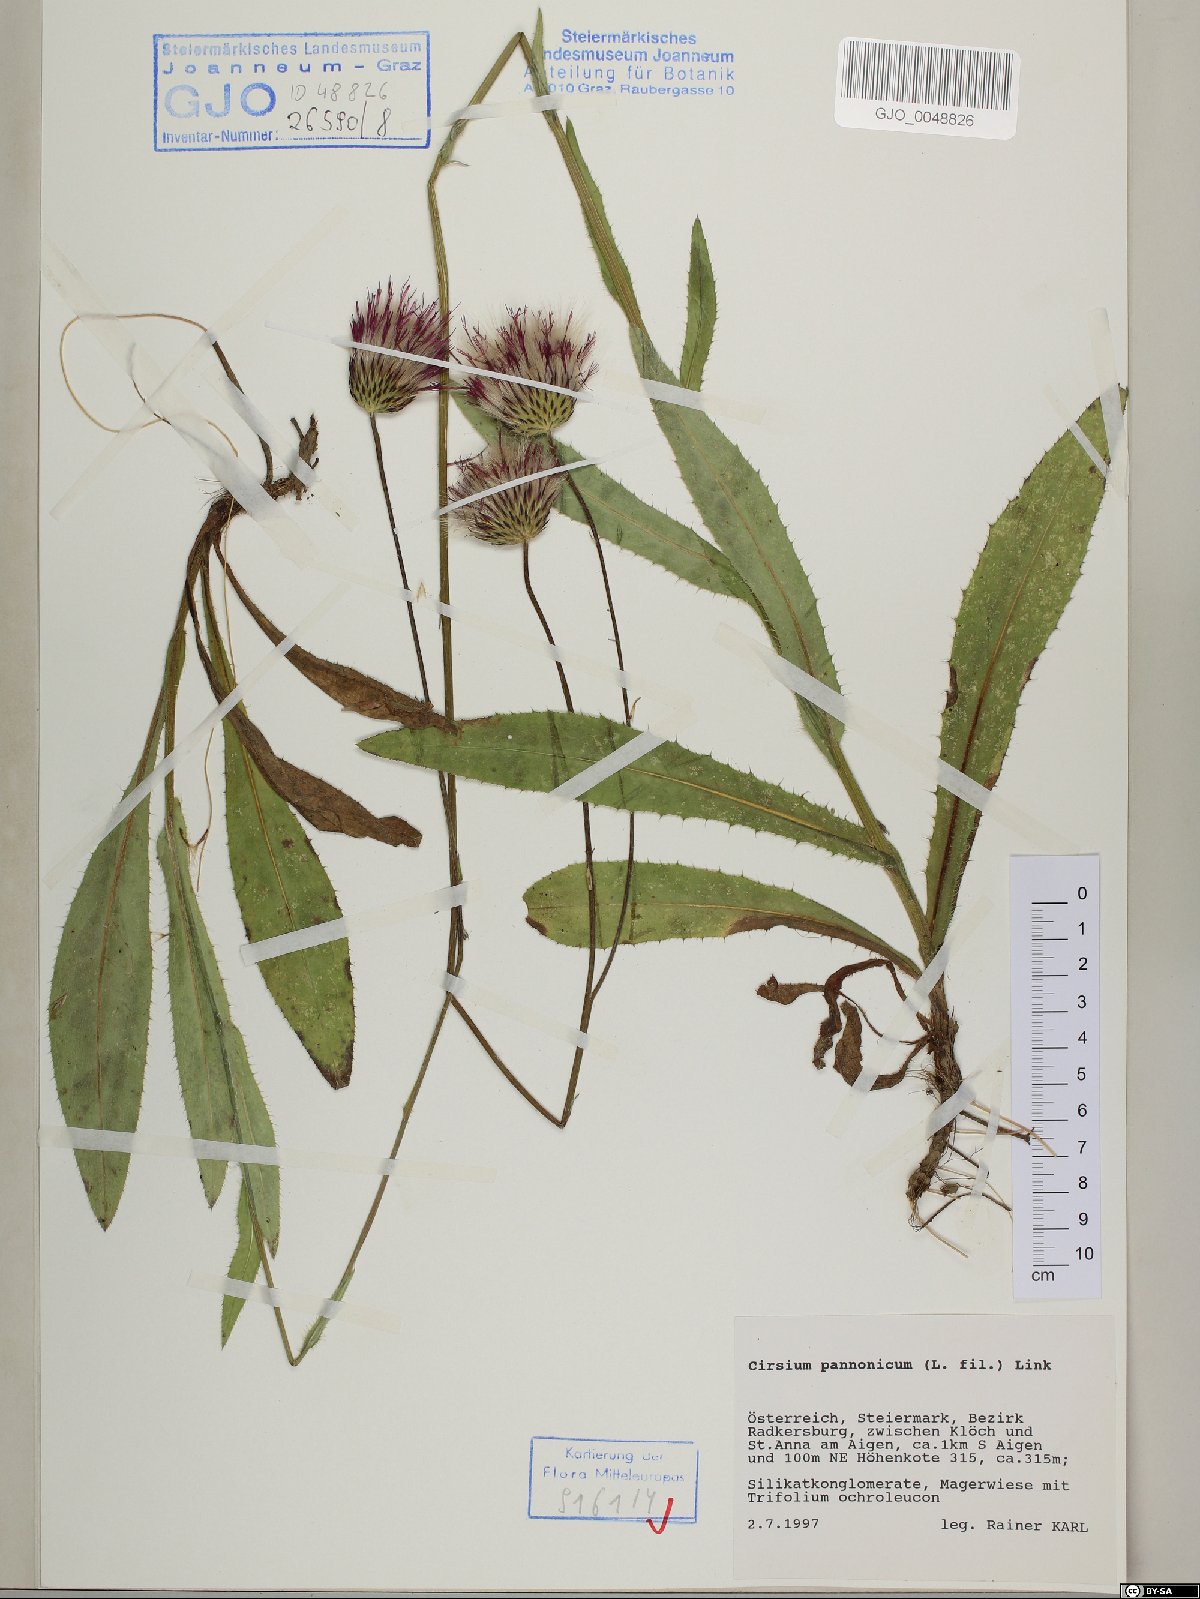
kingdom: Plantae
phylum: Tracheophyta
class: Magnoliopsida
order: Asterales
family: Asteraceae
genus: Cirsium
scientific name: Cirsium pannonicum
